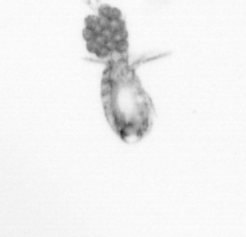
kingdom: Animalia
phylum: Arthropoda
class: Copepoda
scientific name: Copepoda
